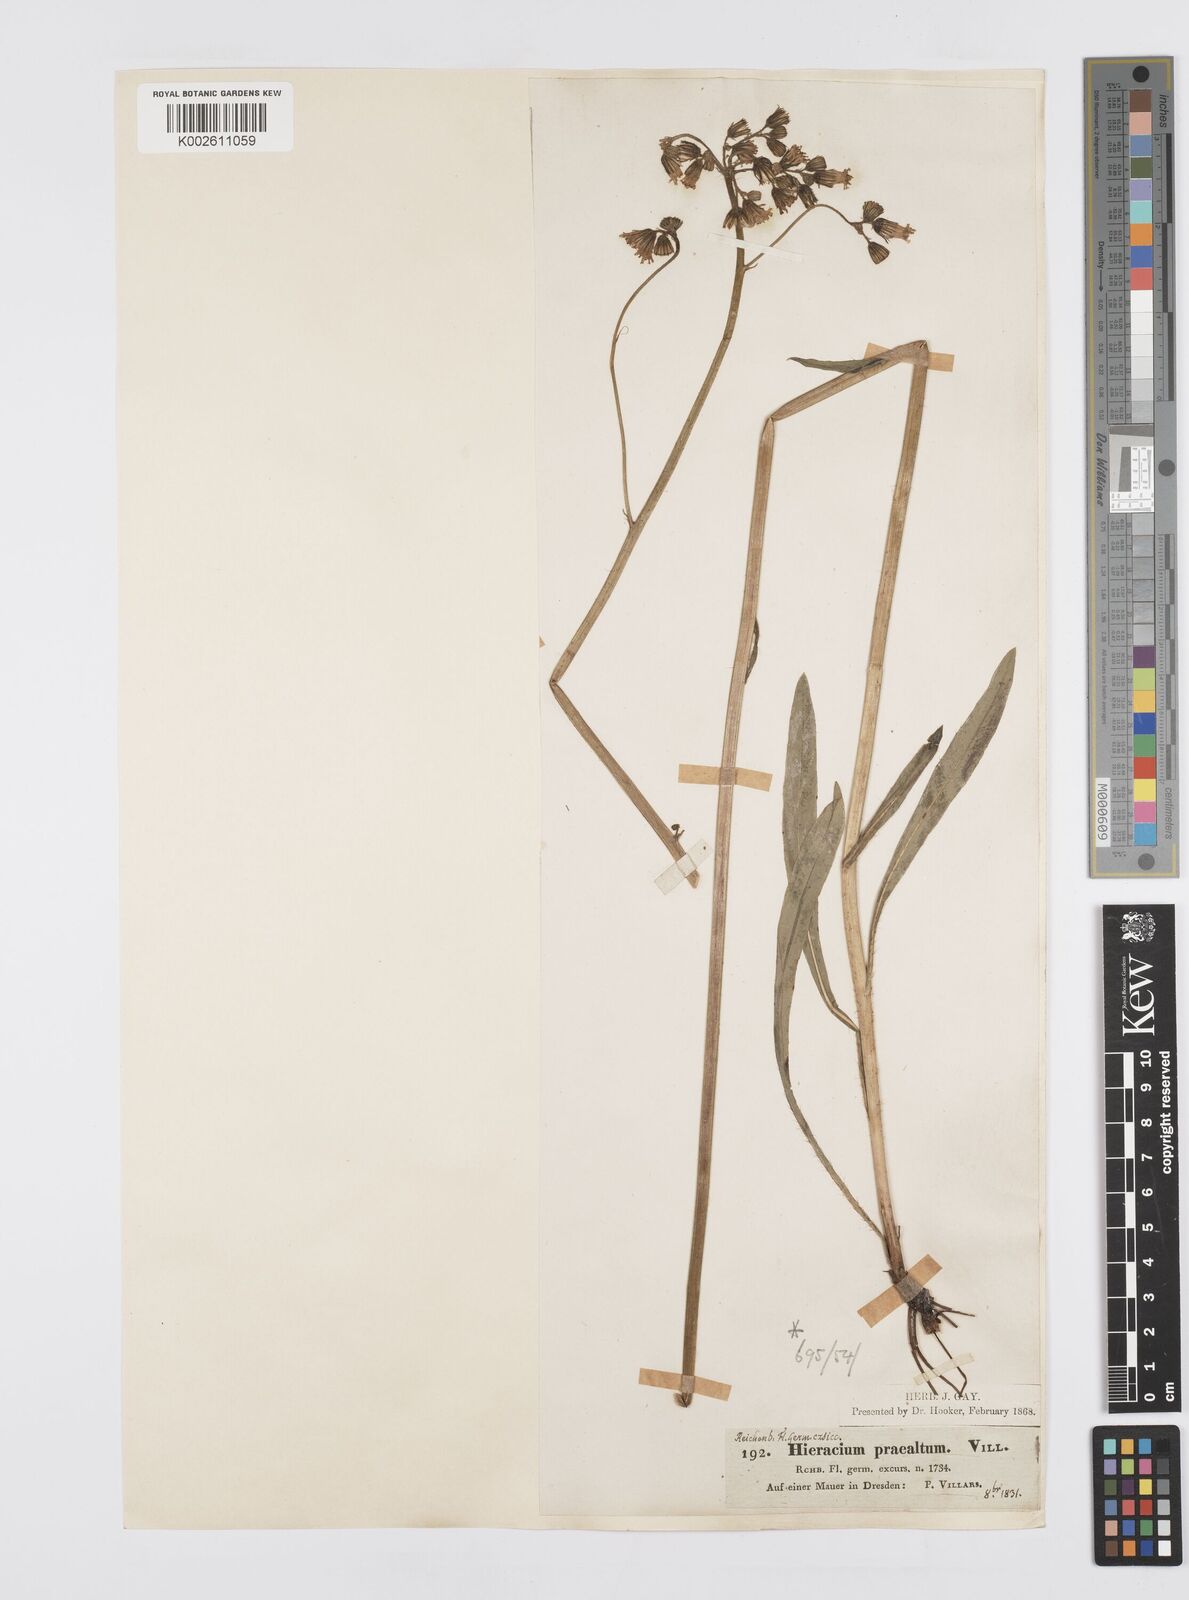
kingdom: Plantae
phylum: Tracheophyta
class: Magnoliopsida
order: Asterales
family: Asteraceae
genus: Pilosella
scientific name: Pilosella piloselloides
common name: Glaucous king-devil
